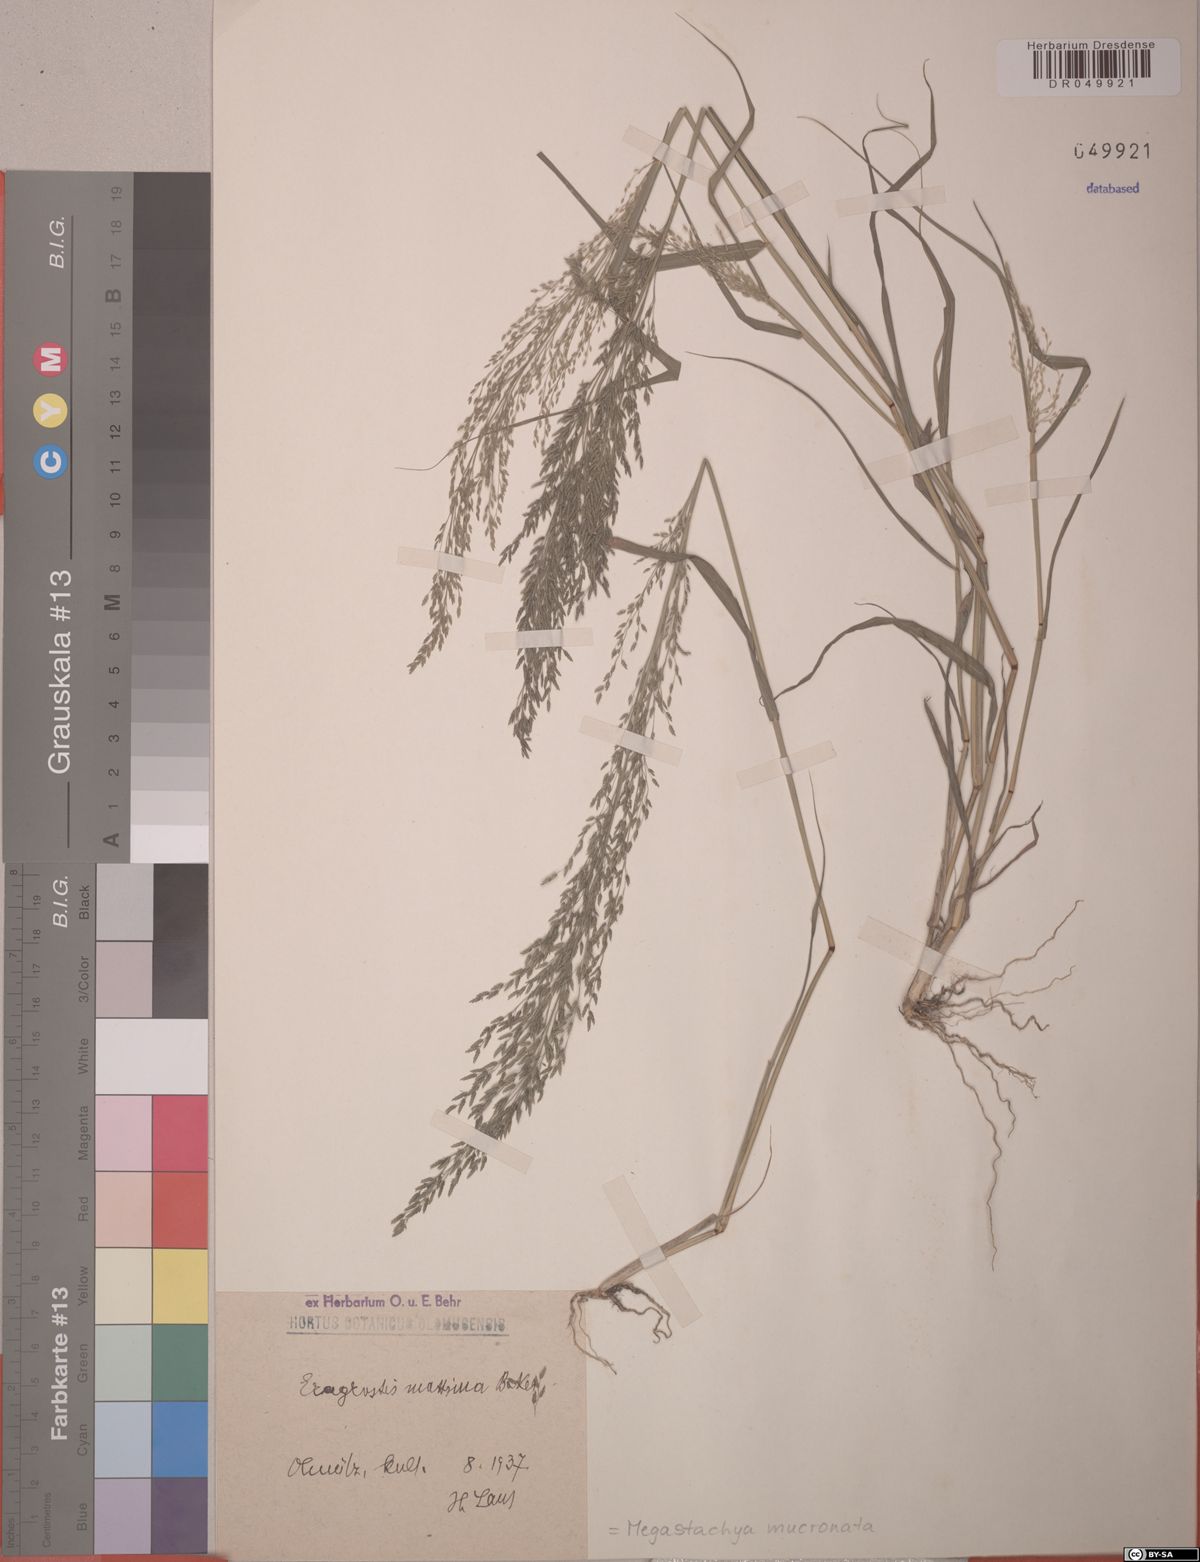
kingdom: Plantae
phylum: Tracheophyta
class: Liliopsida
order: Poales
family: Poaceae
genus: Megastachya
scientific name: Megastachya mucronata
